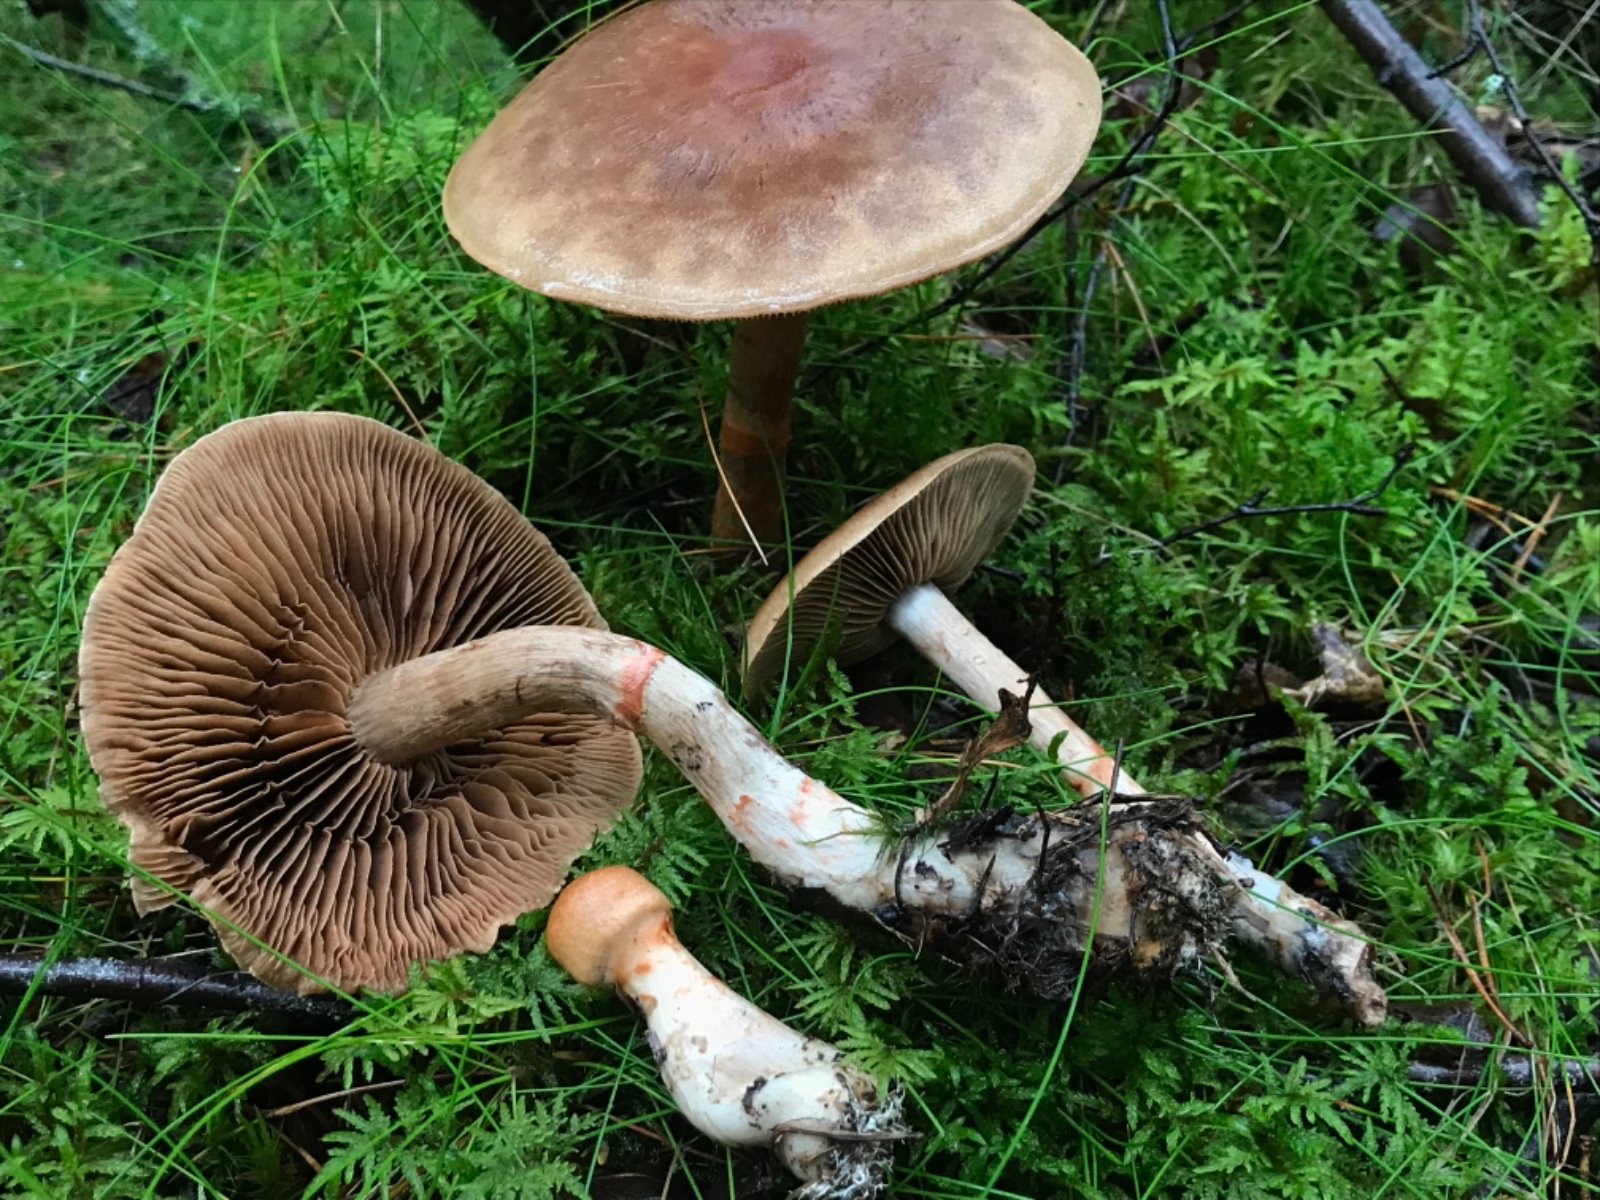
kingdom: Fungi
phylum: Basidiomycota
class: Agaricomycetes
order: Agaricales
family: Cortinariaceae
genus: Cortinarius
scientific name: Cortinarius armillatus
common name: cinnoberbæltet slørhat
